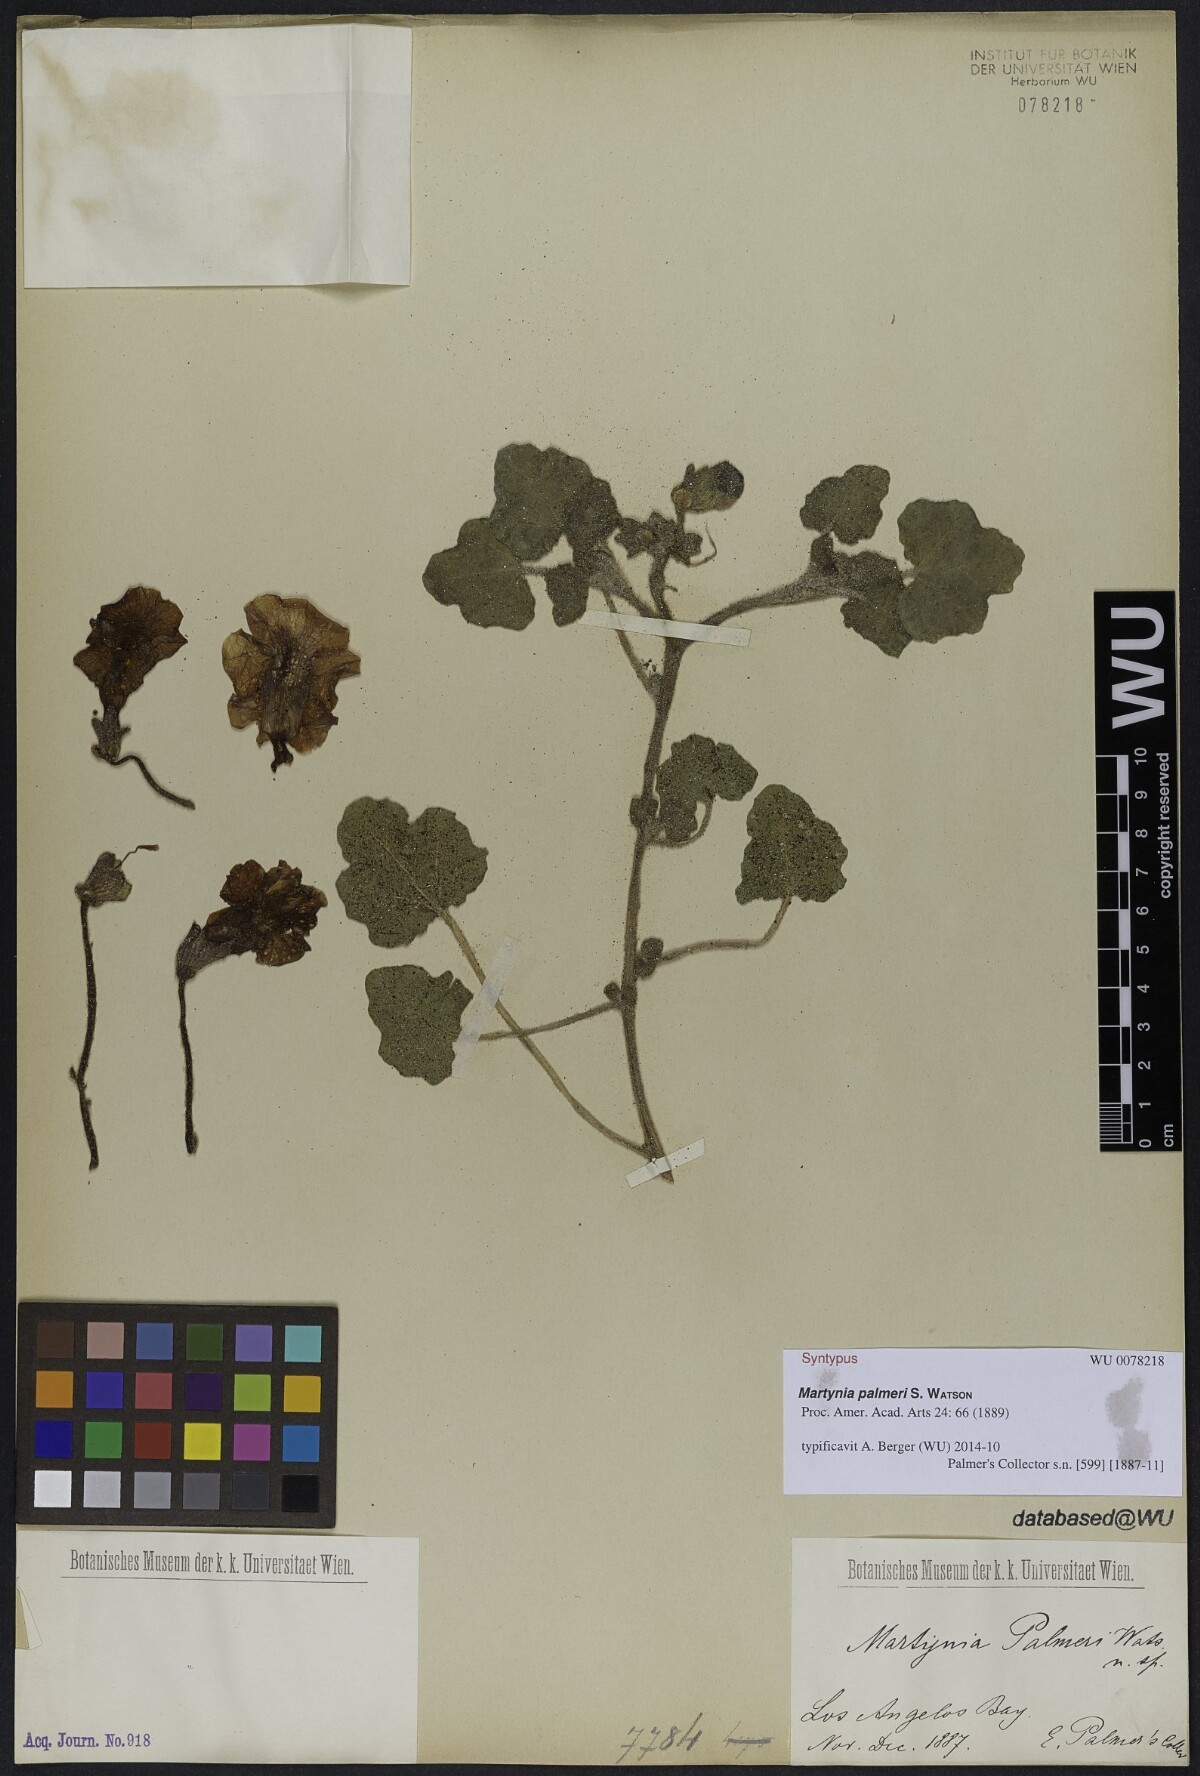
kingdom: Plantae
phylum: Tracheophyta
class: Magnoliopsida
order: Lamiales
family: Martyniaceae
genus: Martynia
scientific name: Martynia palmeri
